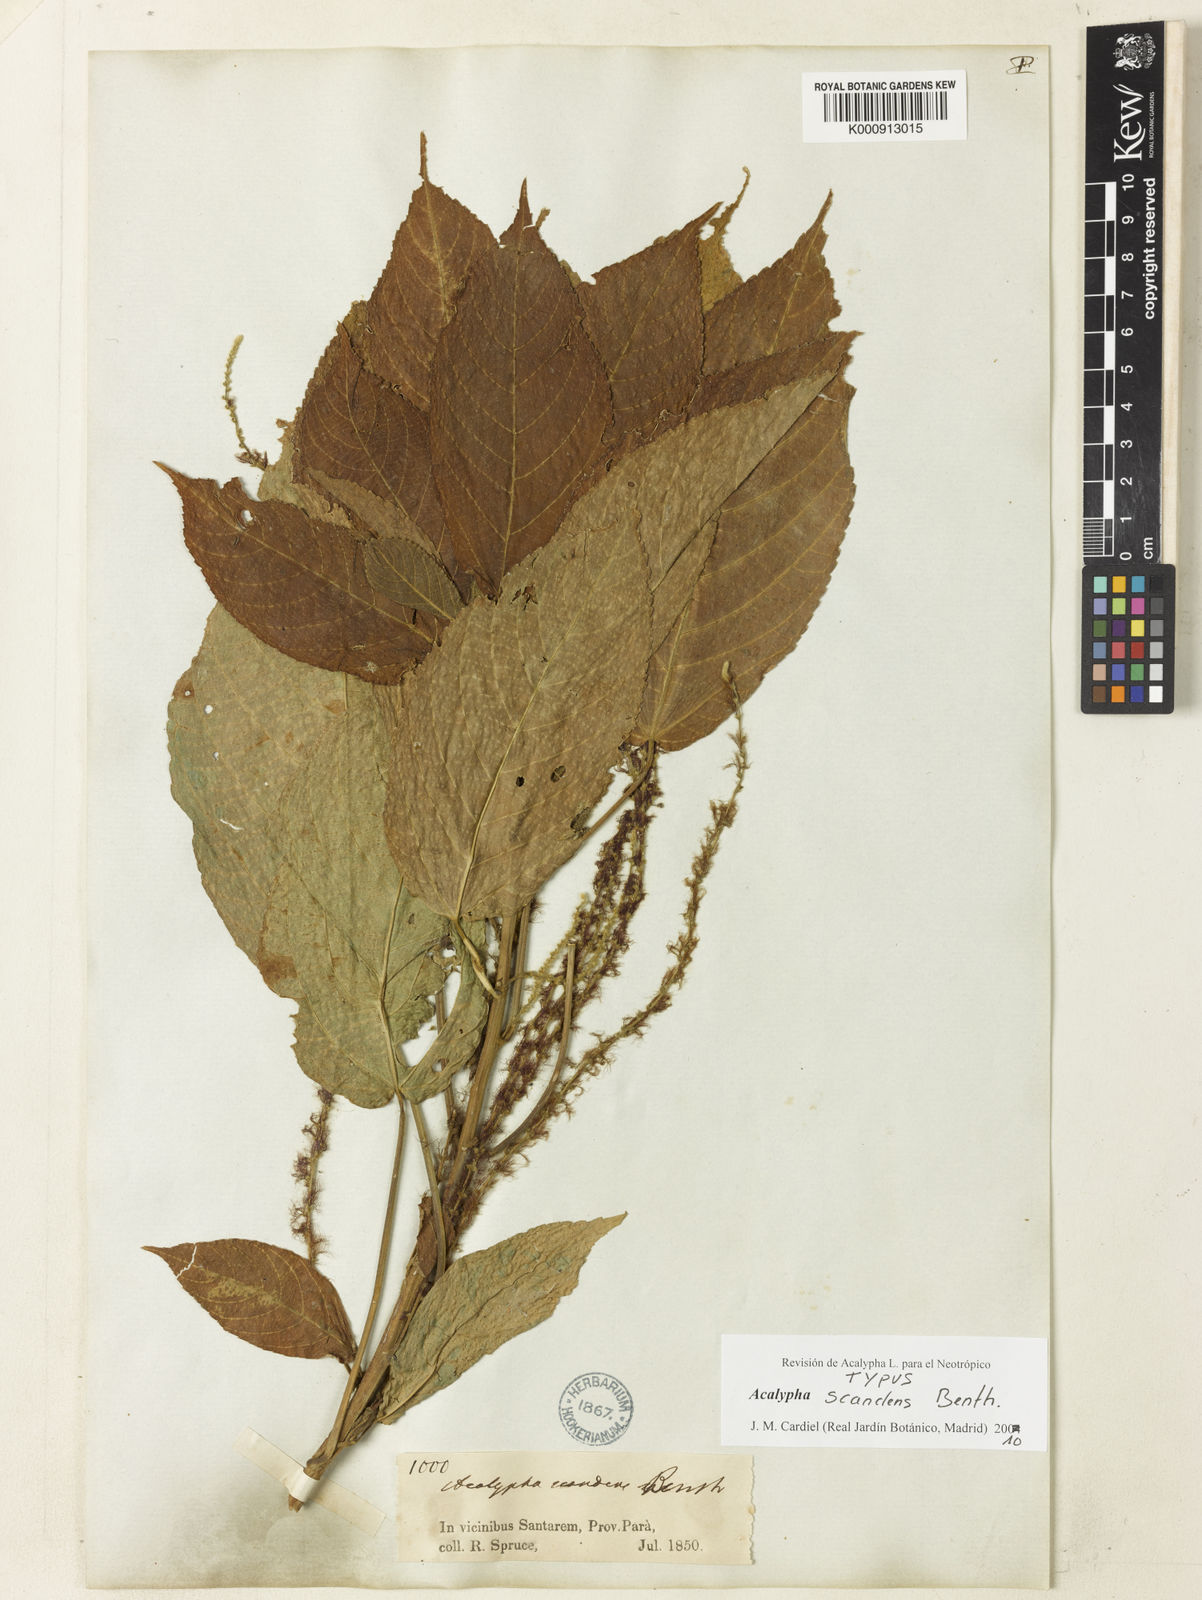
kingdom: Plantae
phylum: Tracheophyta
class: Magnoliopsida
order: Malpighiales
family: Euphorbiaceae
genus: Acalypha
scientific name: Acalypha scandens
